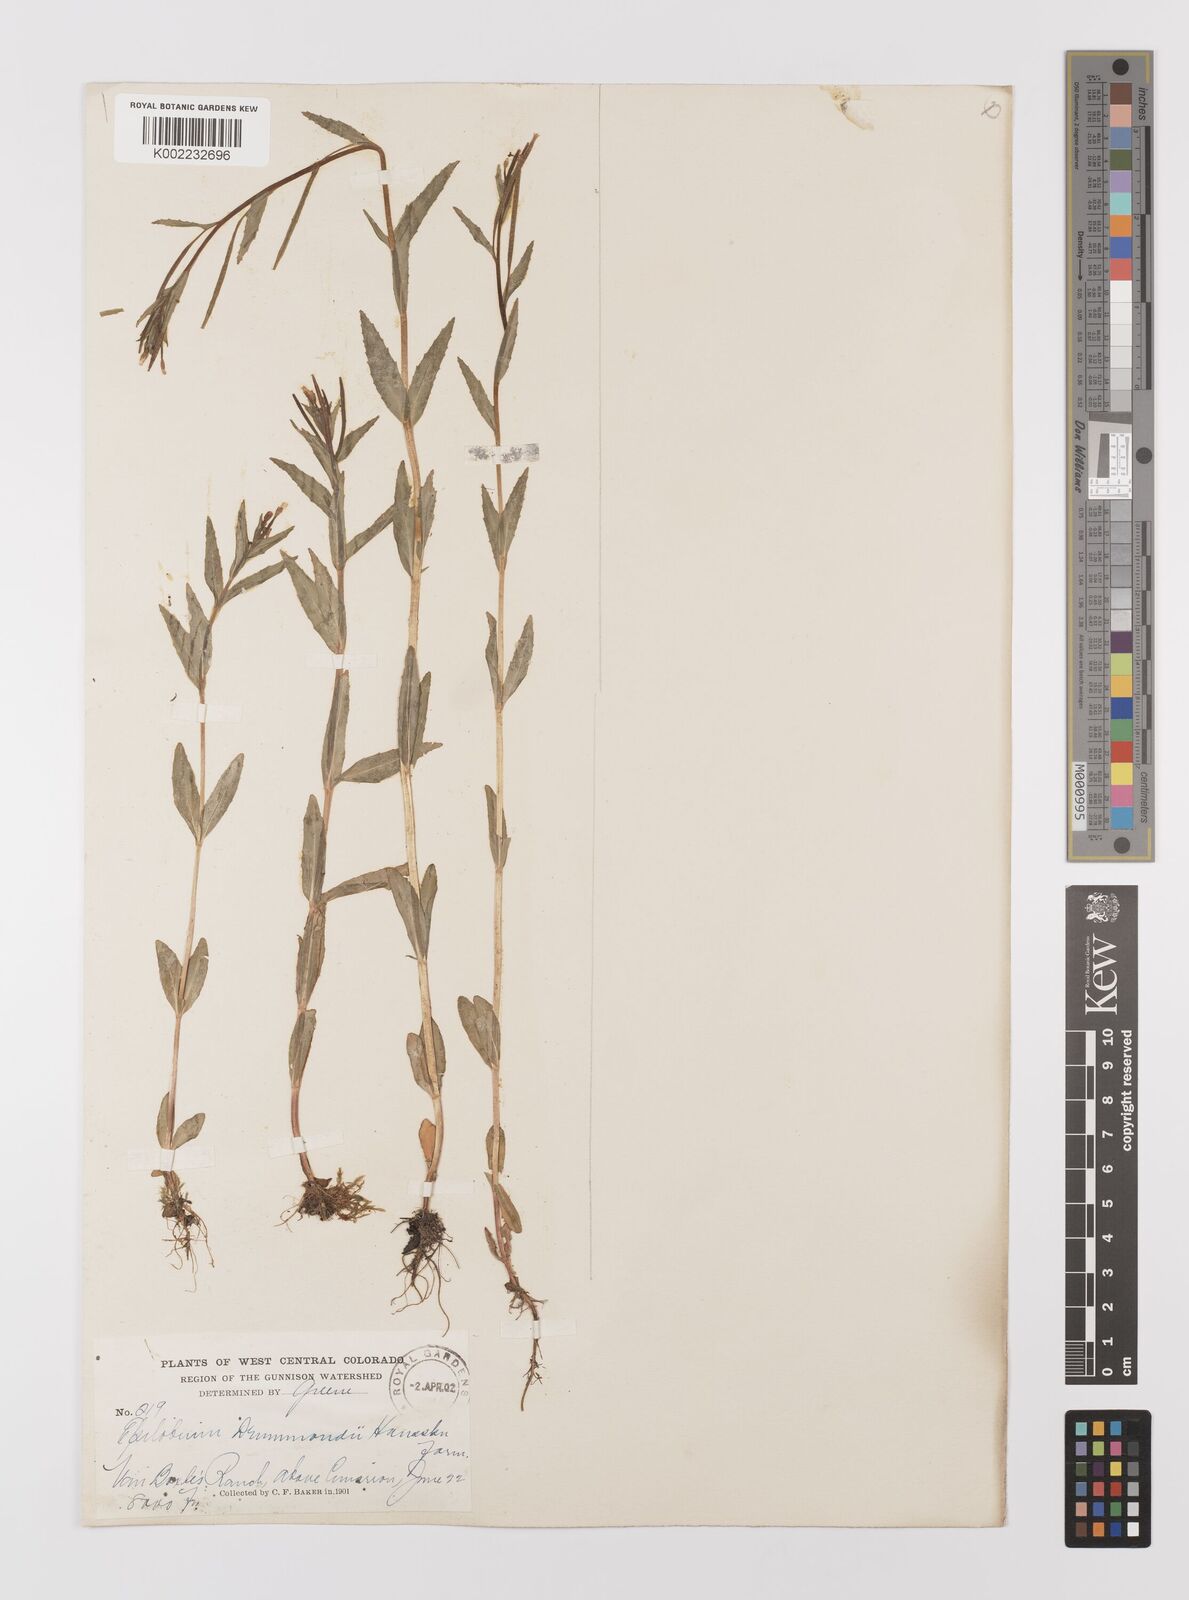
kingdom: Plantae
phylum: Tracheophyta
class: Magnoliopsida
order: Myrtales
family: Onagraceae
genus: Epilobium
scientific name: Epilobium
